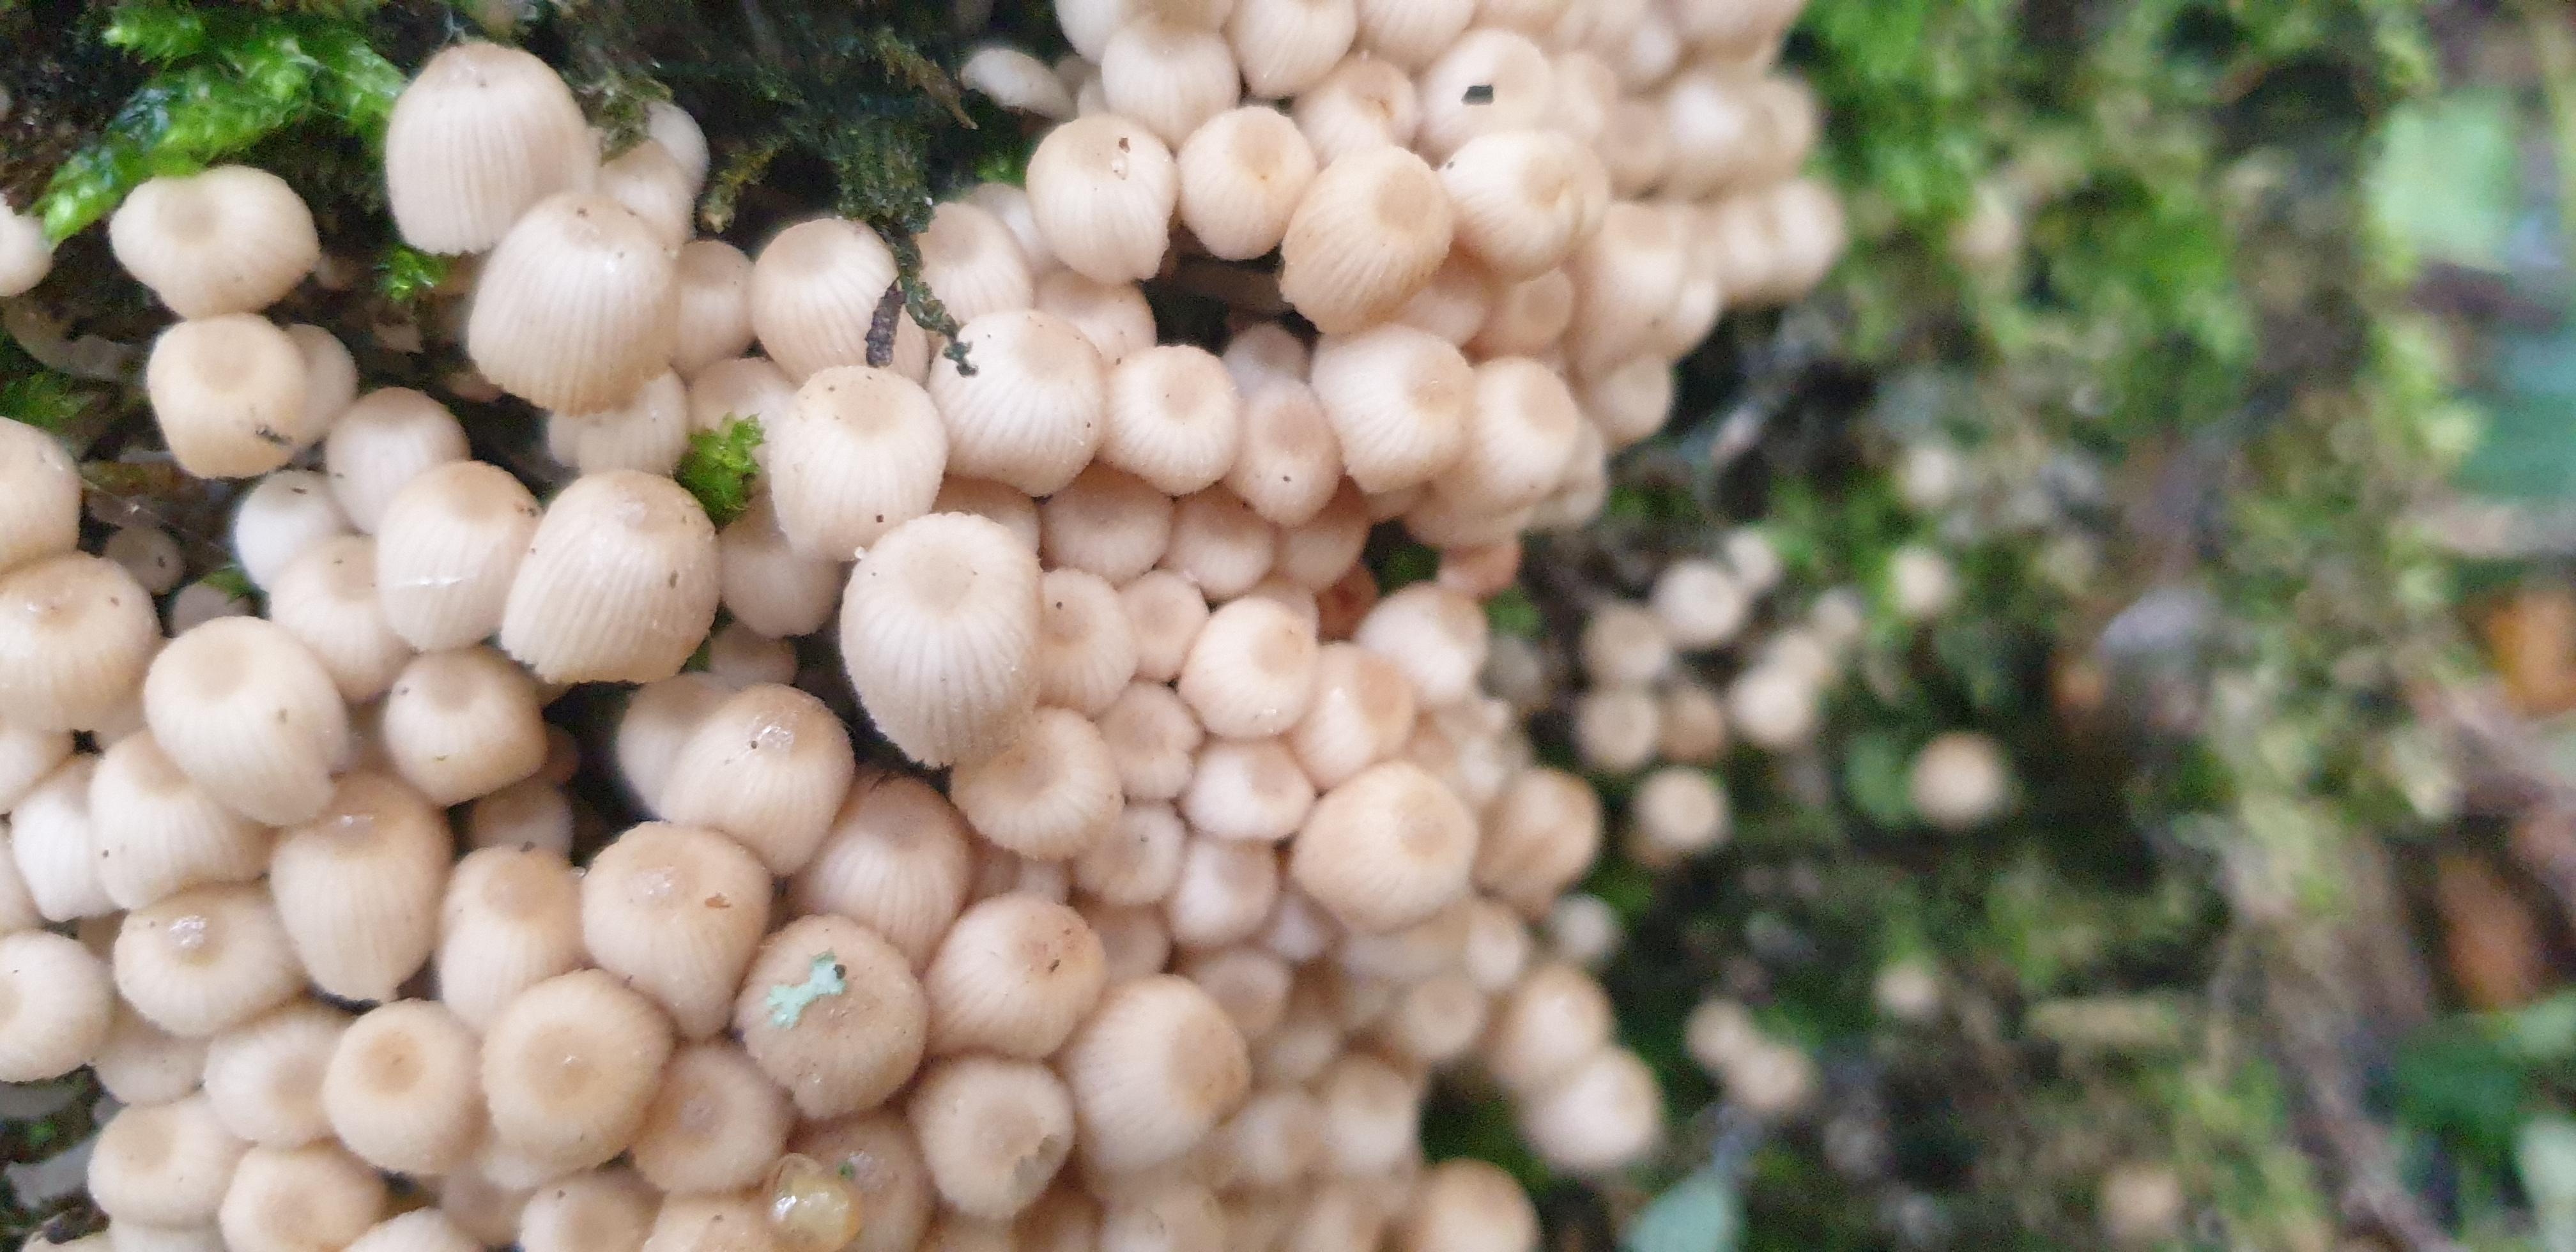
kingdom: Fungi
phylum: Basidiomycota
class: Agaricomycetes
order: Agaricales
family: Psathyrellaceae
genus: Coprinellus
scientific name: Coprinellus disseminatus
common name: bredsået blækhat
